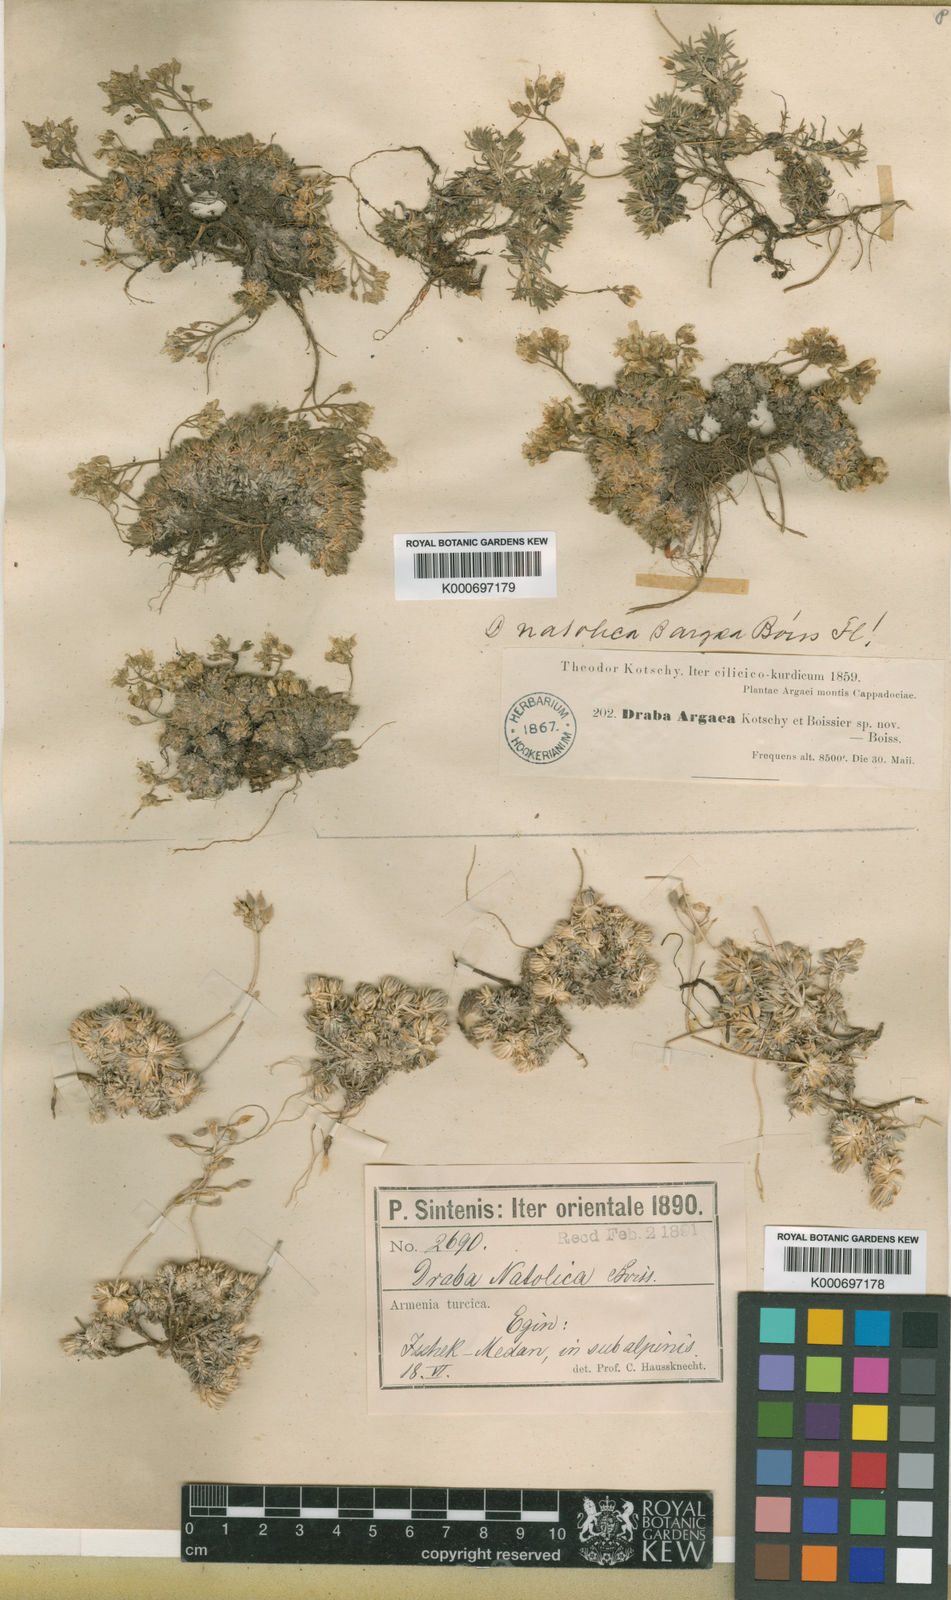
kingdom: Plantae
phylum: Tracheophyta
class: Magnoliopsida
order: Brassicales
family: Brassicaceae
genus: Draba
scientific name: Draba bruniifolia
